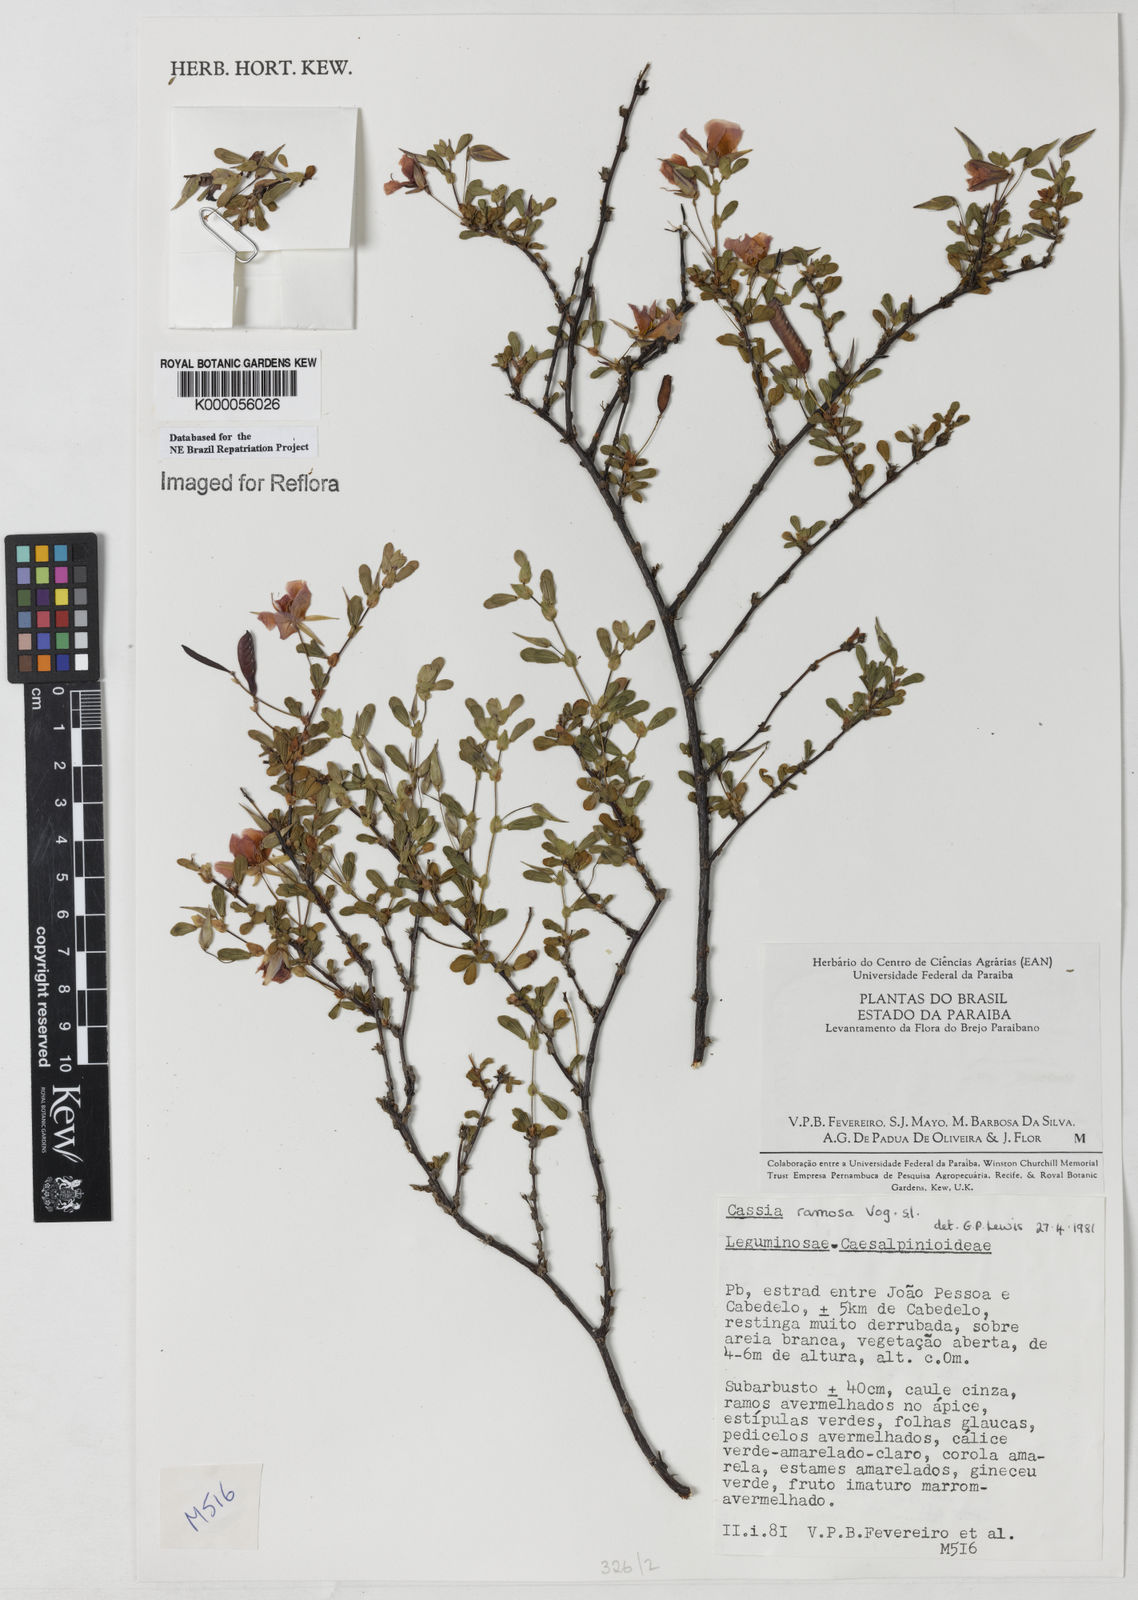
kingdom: Plantae
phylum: Tracheophyta
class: Magnoliopsida
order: Fabales
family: Fabaceae
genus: Chamaecrista
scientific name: Chamaecrista ramosa
